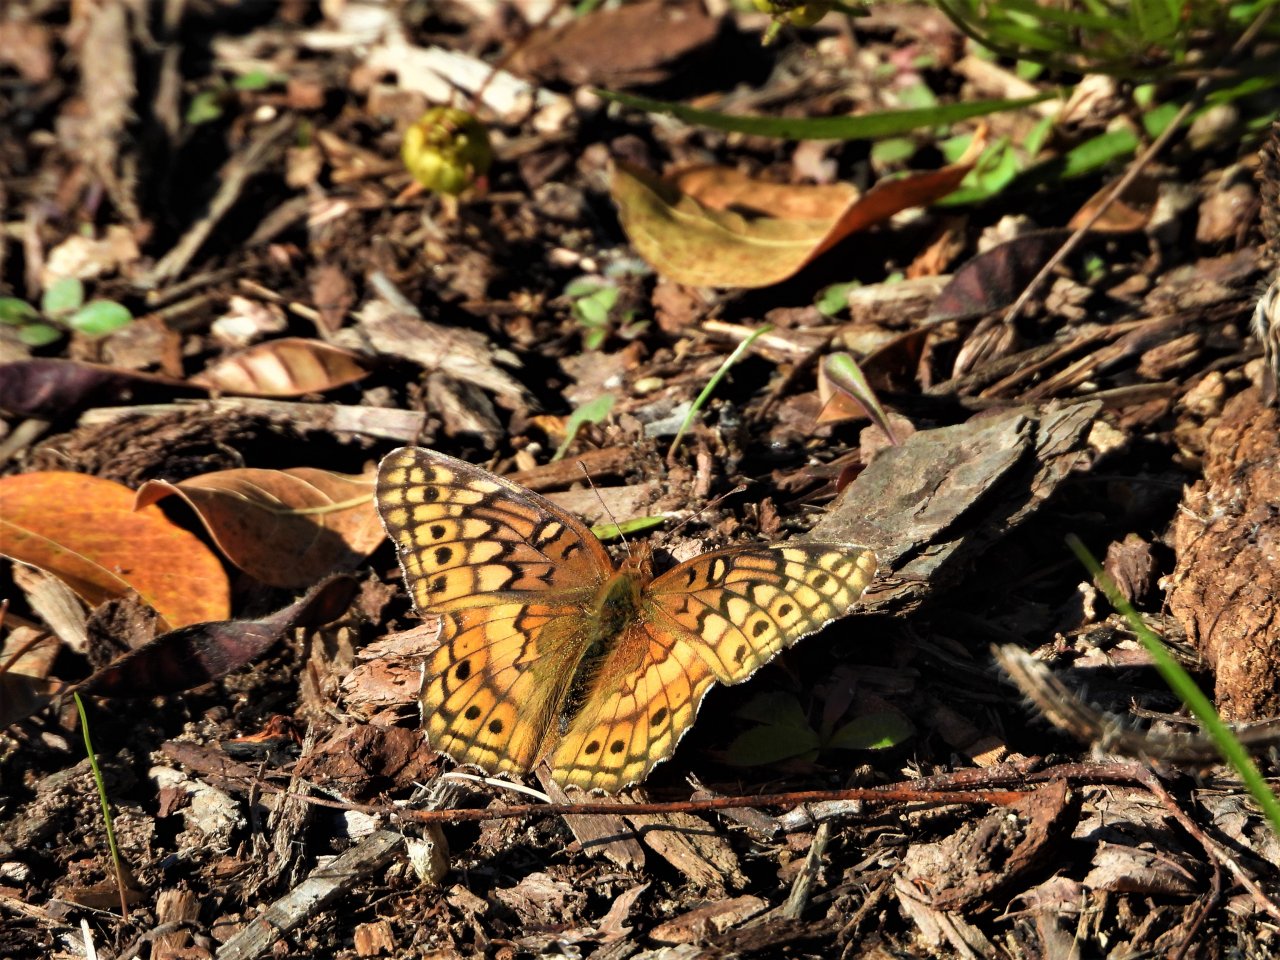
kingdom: Animalia
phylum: Arthropoda
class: Insecta
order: Lepidoptera
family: Nymphalidae
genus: Euptoieta
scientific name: Euptoieta claudia
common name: Variegated Fritillary
